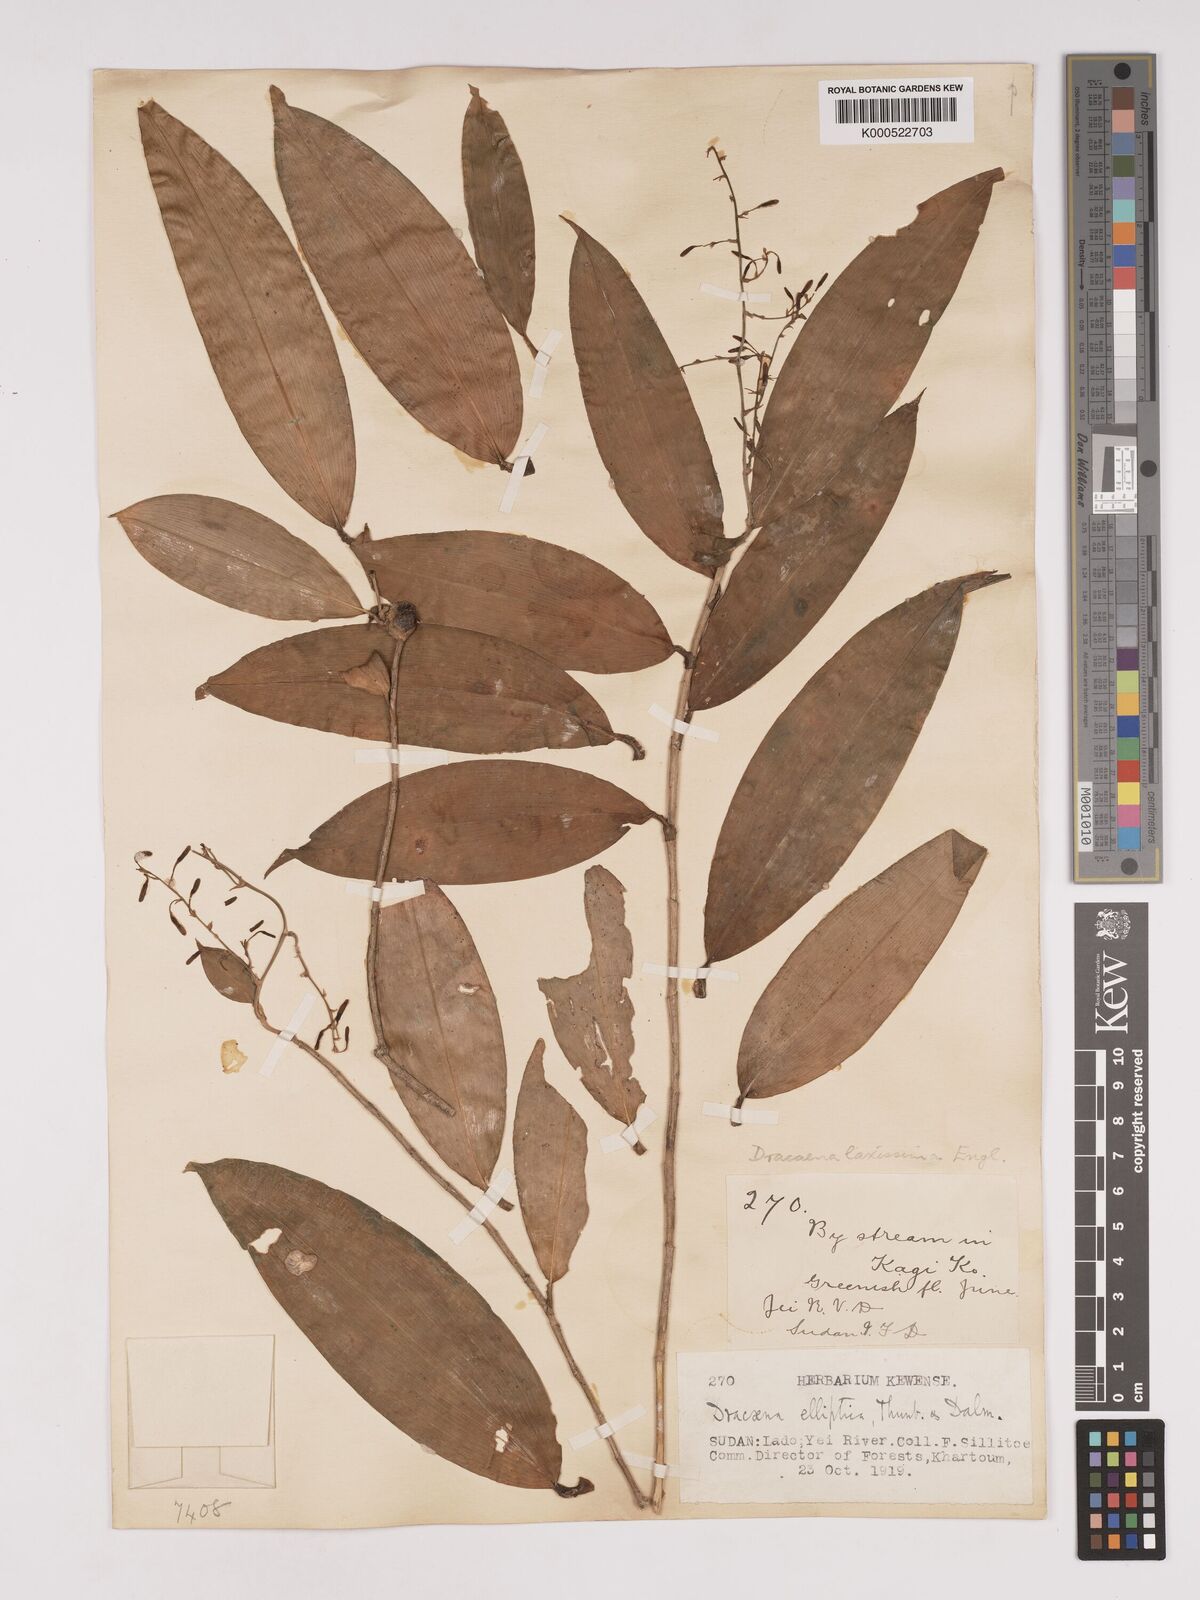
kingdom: Plantae
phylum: Tracheophyta
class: Liliopsida
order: Asparagales
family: Asparagaceae
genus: Dracaena
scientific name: Dracaena laxissima
